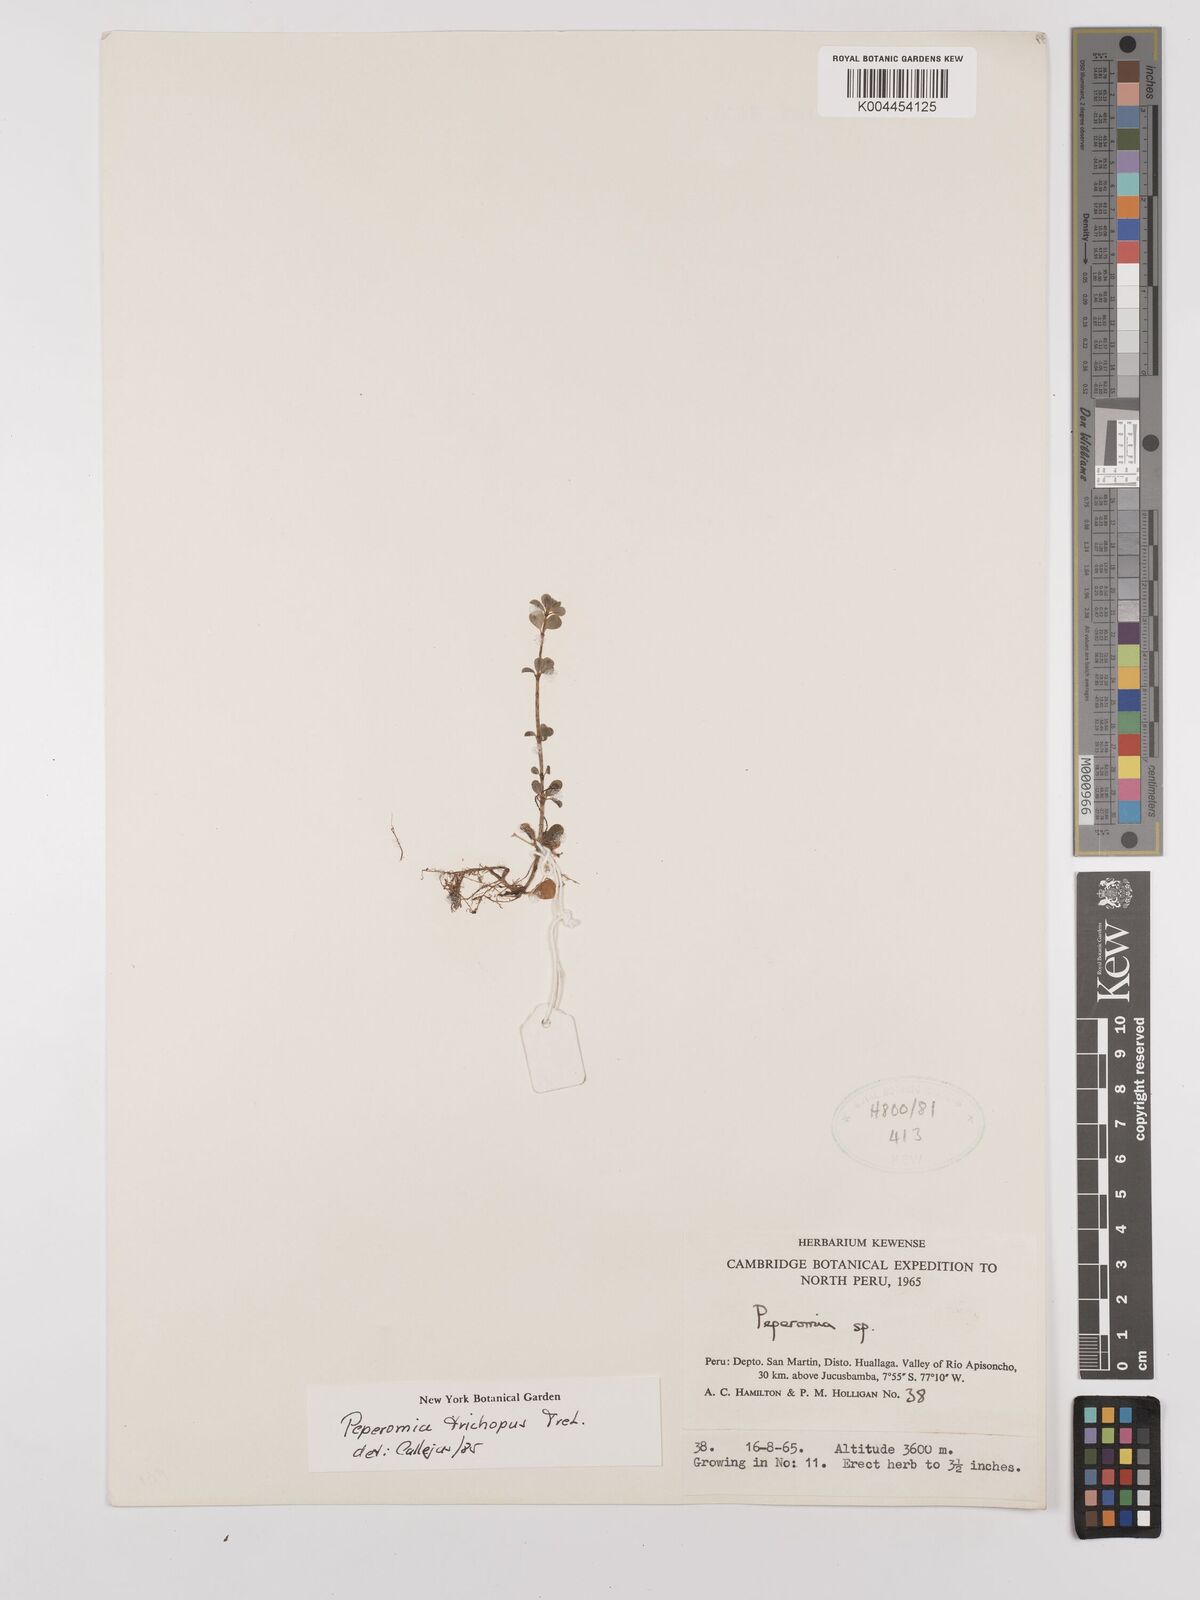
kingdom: Plantae
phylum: Tracheophyta
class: Magnoliopsida
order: Piperales
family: Piperaceae
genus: Peperomia
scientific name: Peperomia trichopus
